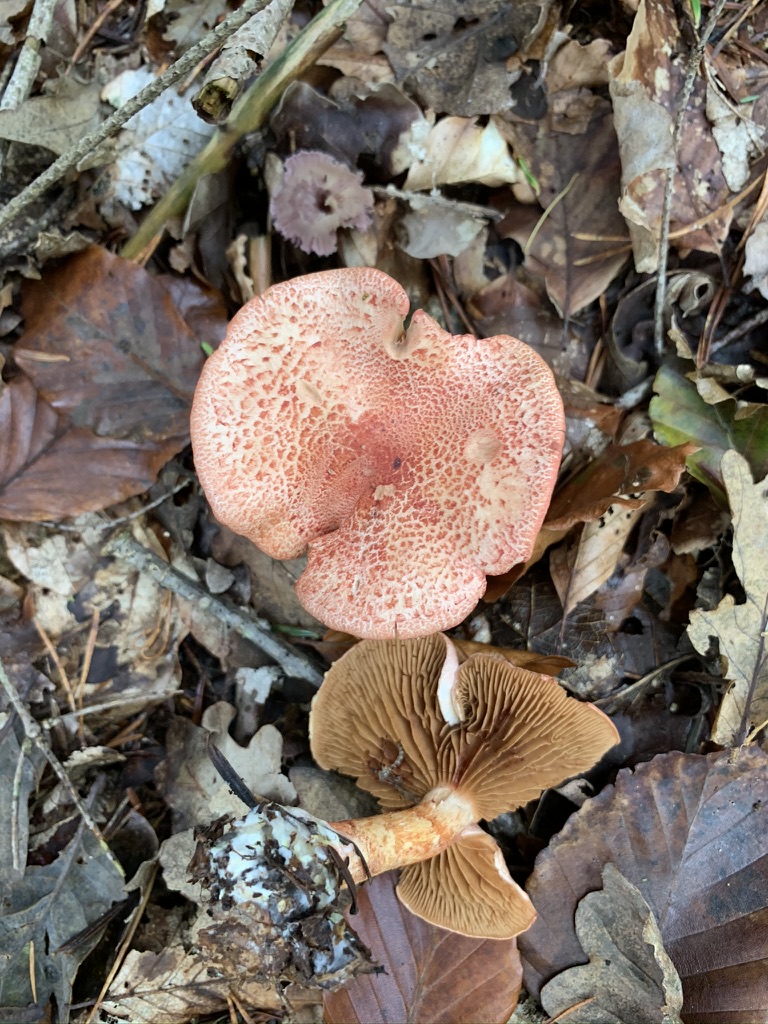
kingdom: Fungi
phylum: Basidiomycota
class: Agaricomycetes
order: Agaricales
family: Cortinariaceae
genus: Cortinarius
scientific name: Cortinarius bolaris
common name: cinnoberskællet slørhat
